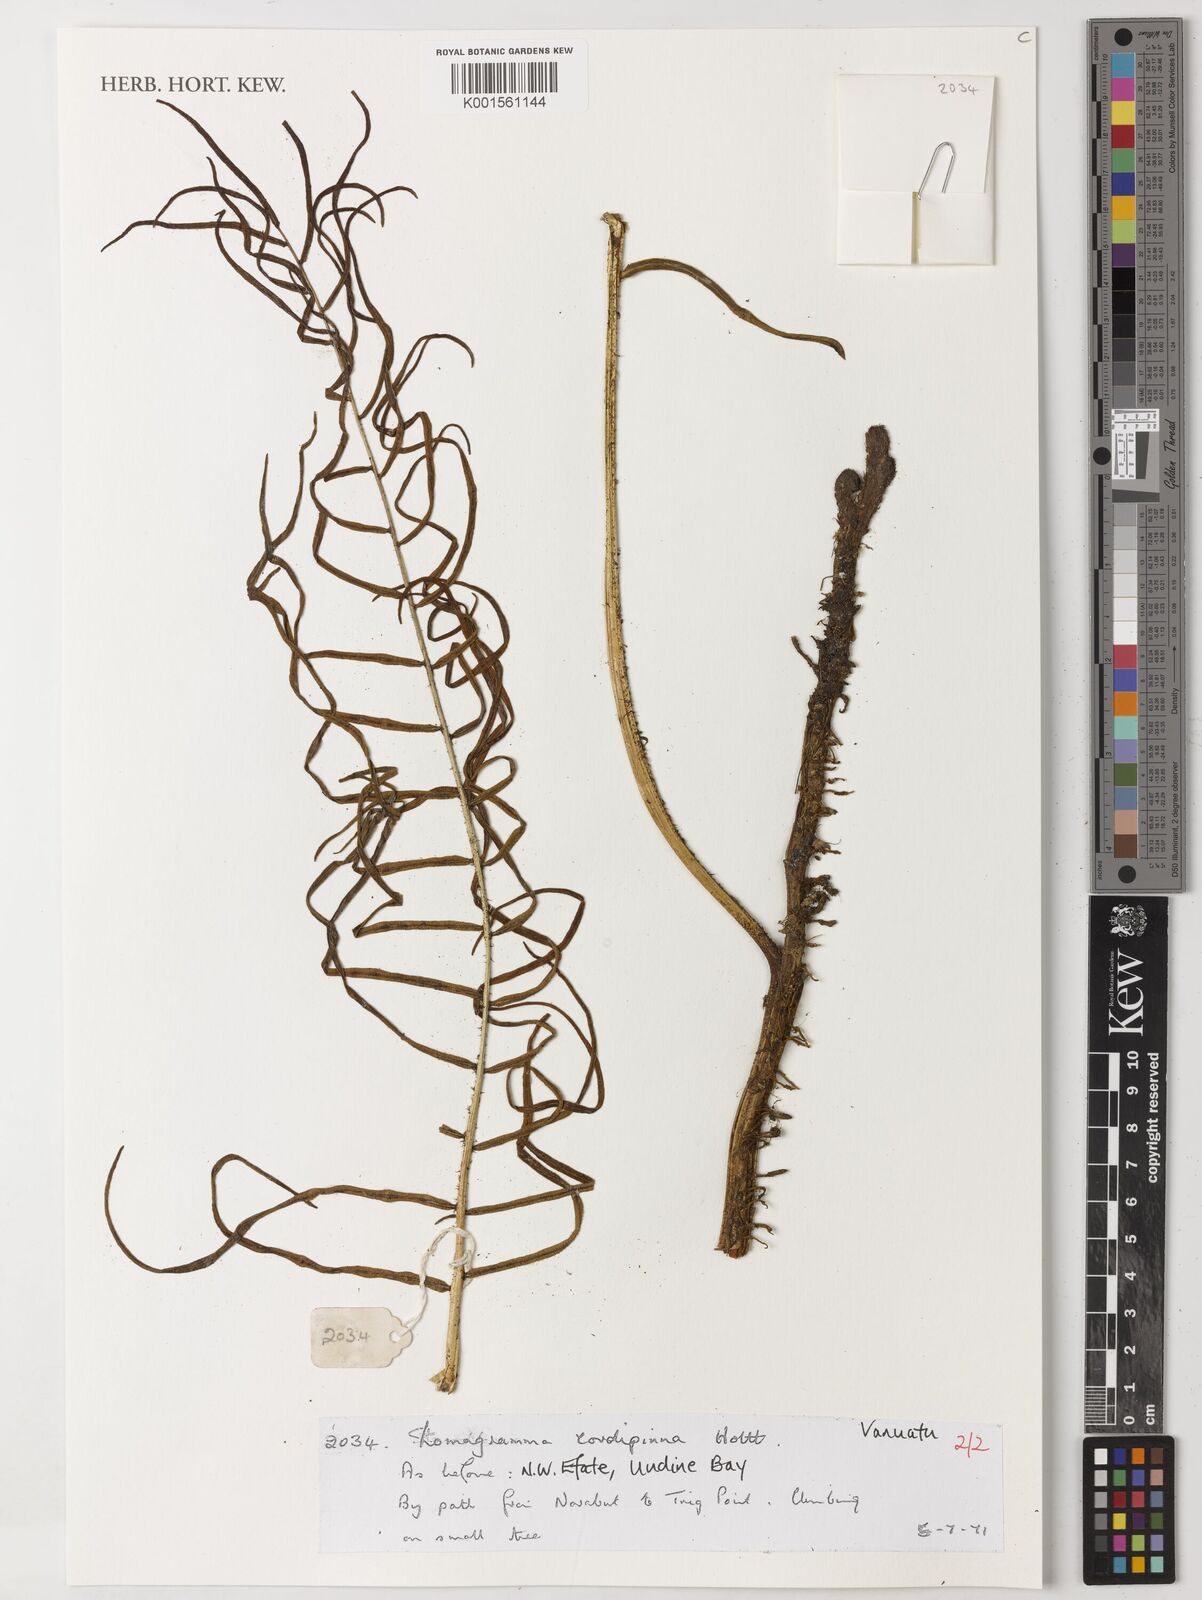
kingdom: Plantae
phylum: Tracheophyta
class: Polypodiopsida
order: Polypodiales
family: Dryopteridaceae
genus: Lomagramma
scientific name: Lomagramma cordipinna
